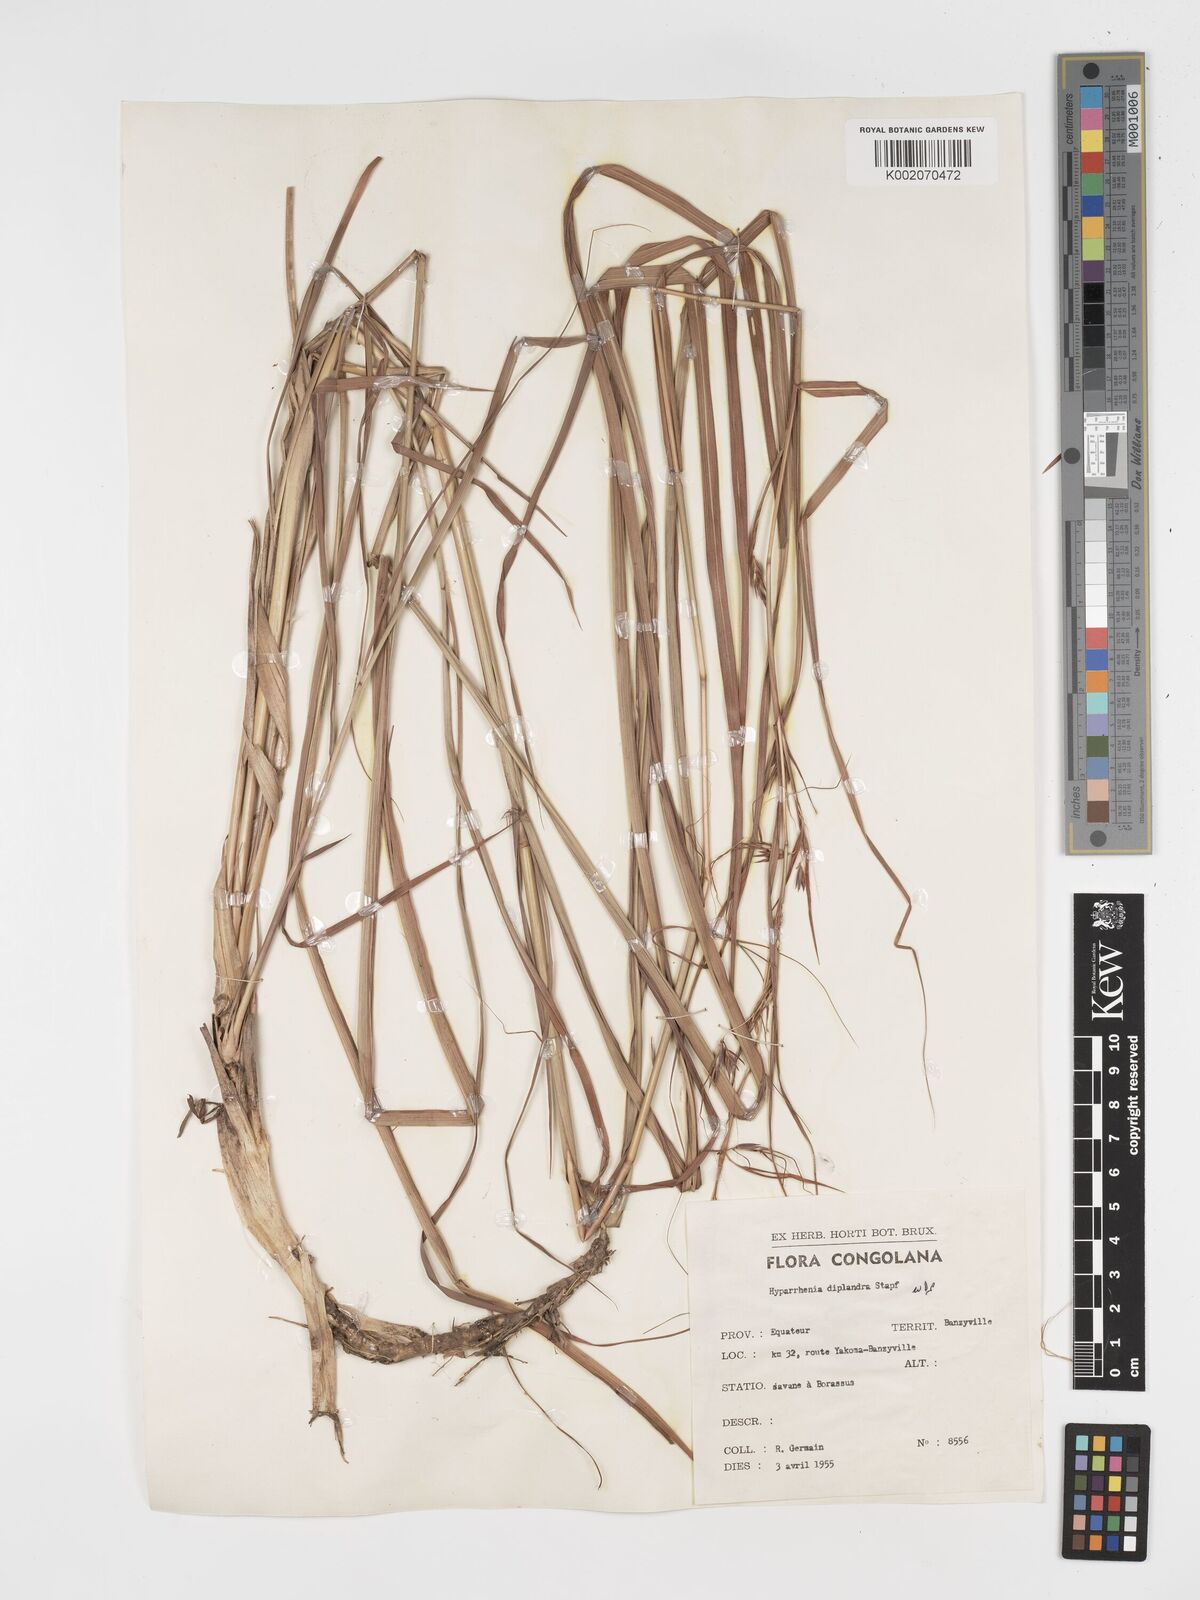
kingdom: Plantae
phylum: Tracheophyta
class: Liliopsida
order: Poales
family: Poaceae
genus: Hyparrhenia
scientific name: Hyparrhenia diplandra
